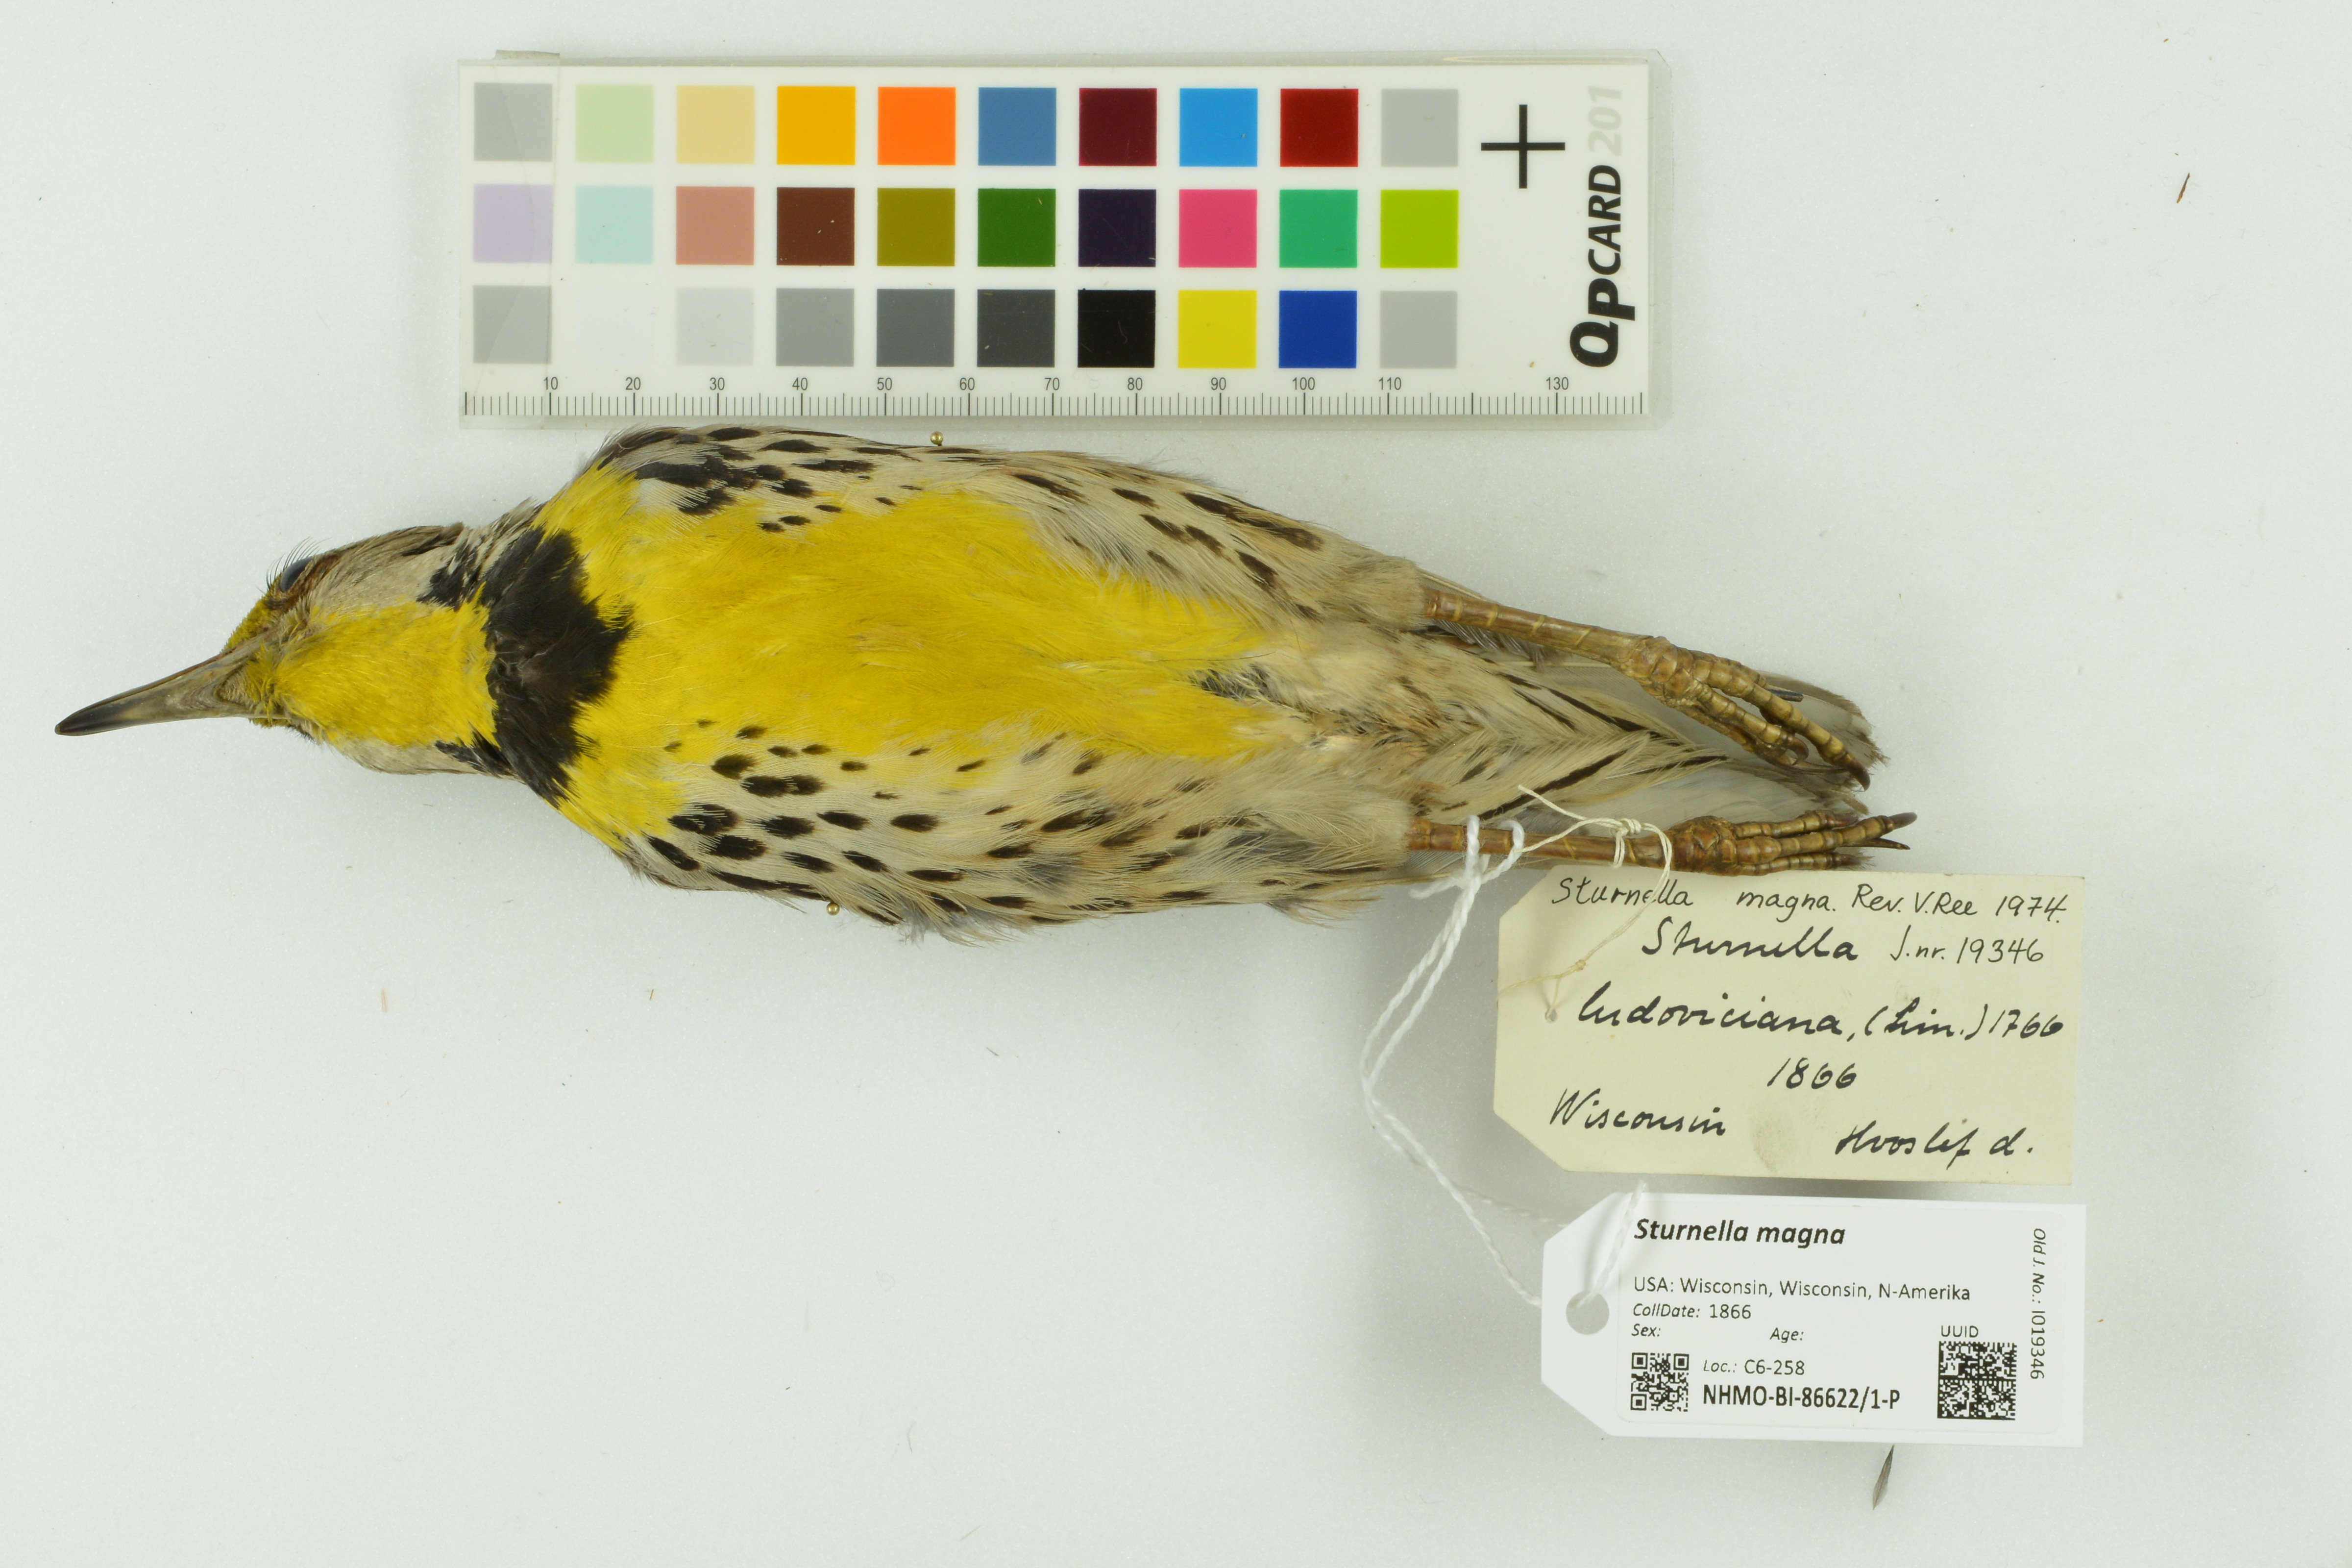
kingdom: Animalia
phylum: Chordata
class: Aves
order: Passeriformes
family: Icteridae
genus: Sturnella
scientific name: Sturnella magna
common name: Eastern meadowlark
